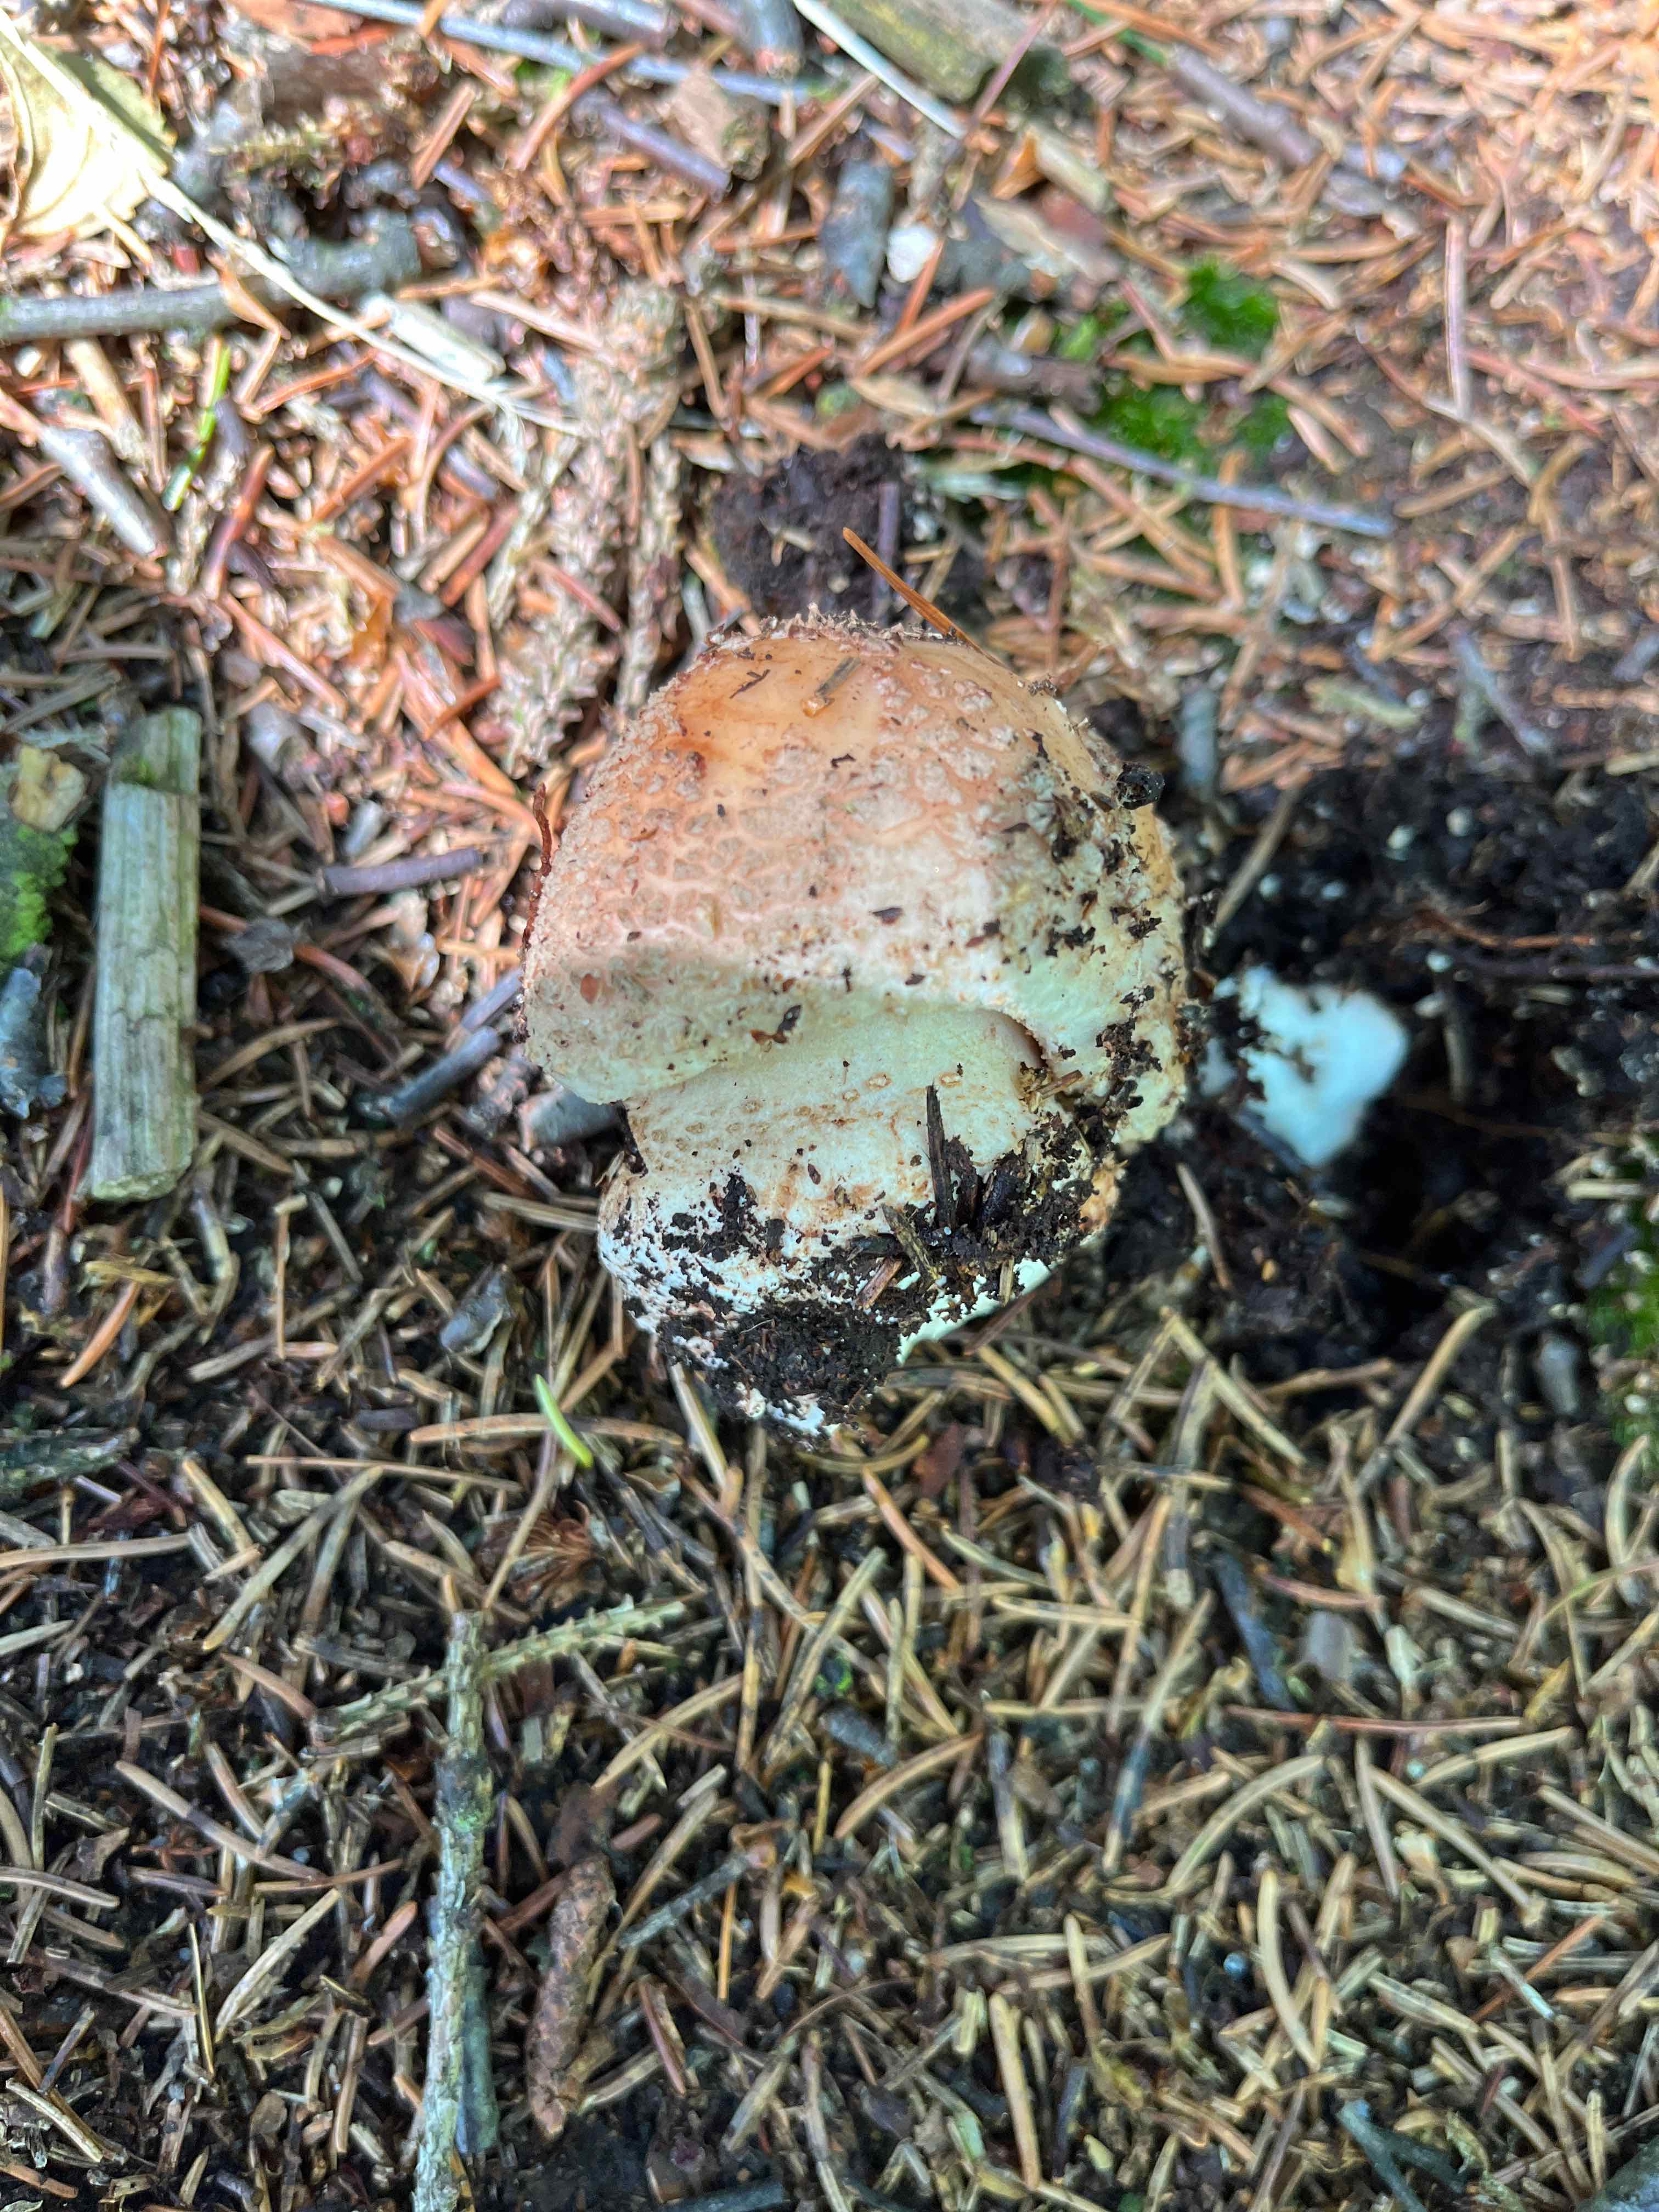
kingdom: Fungi
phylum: Basidiomycota
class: Agaricomycetes
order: Agaricales
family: Amanitaceae
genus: Amanita
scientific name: Amanita rubescens
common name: rødmende fluesvamp
